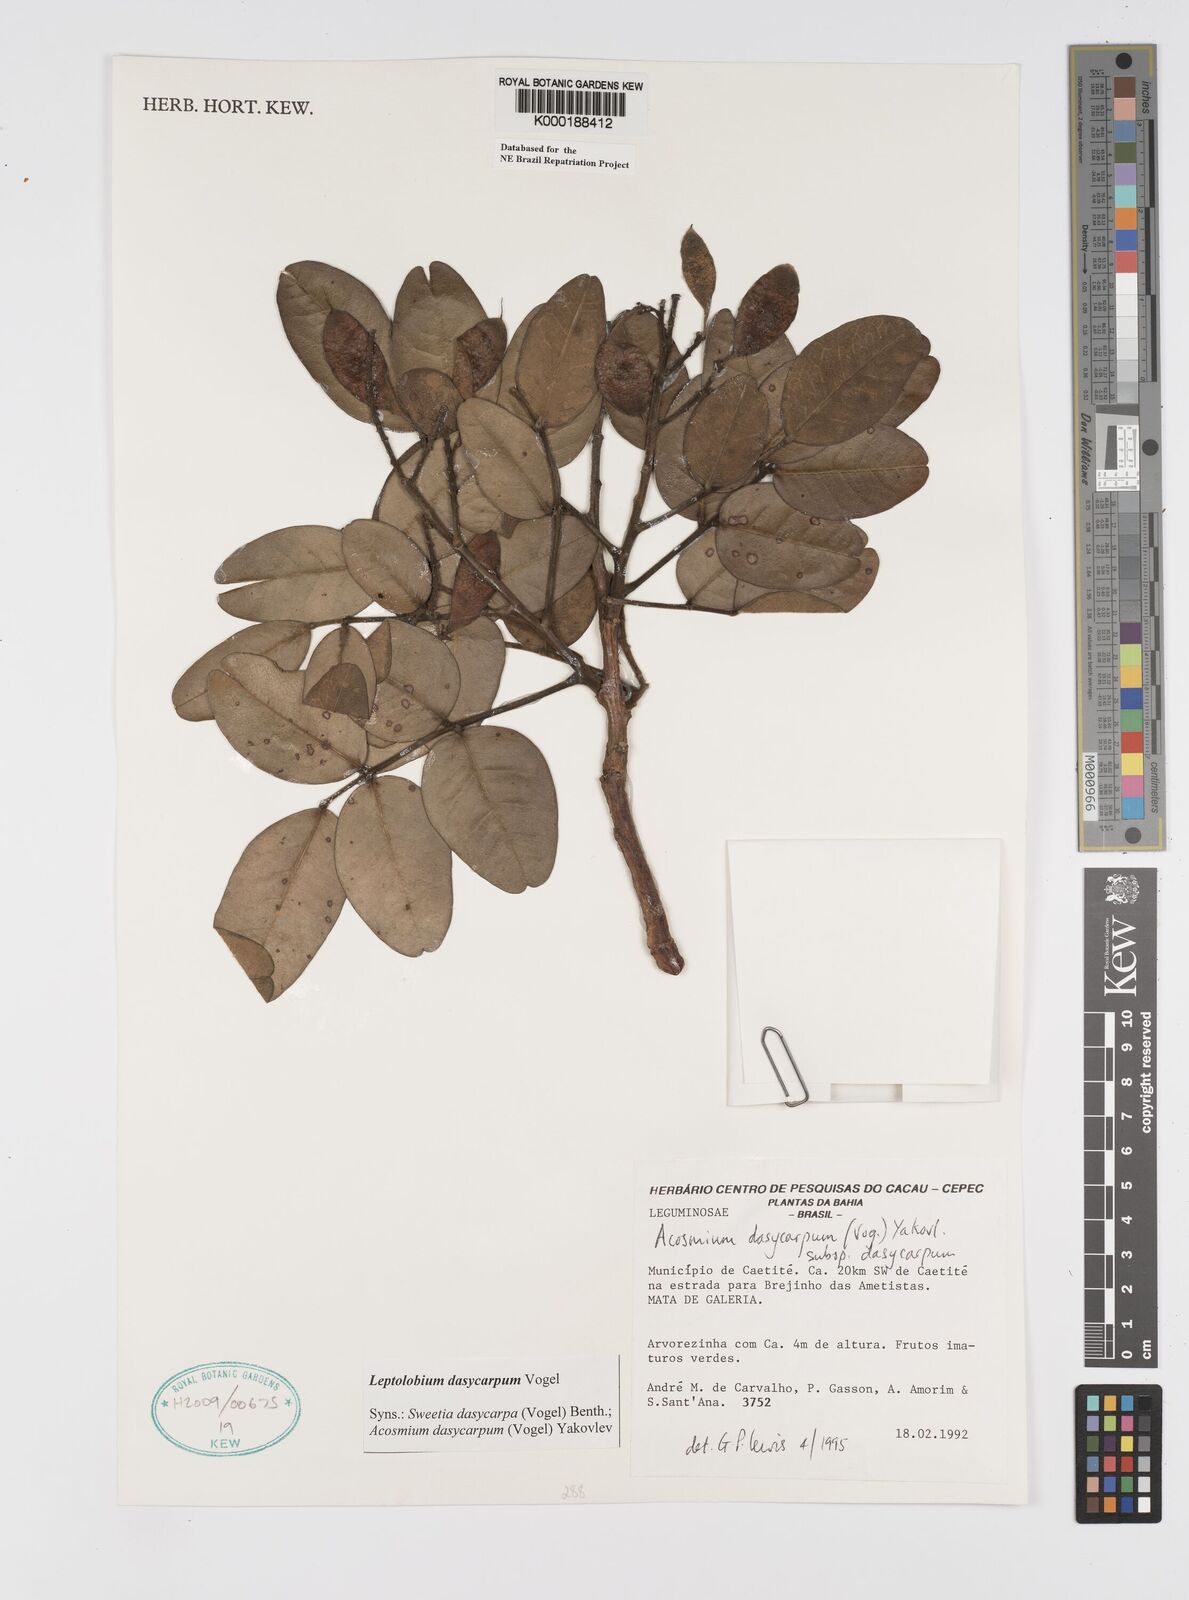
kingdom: Plantae
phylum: Tracheophyta
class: Magnoliopsida
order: Fabales
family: Fabaceae
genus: Leptolobium
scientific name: Leptolobium dasycarpum
